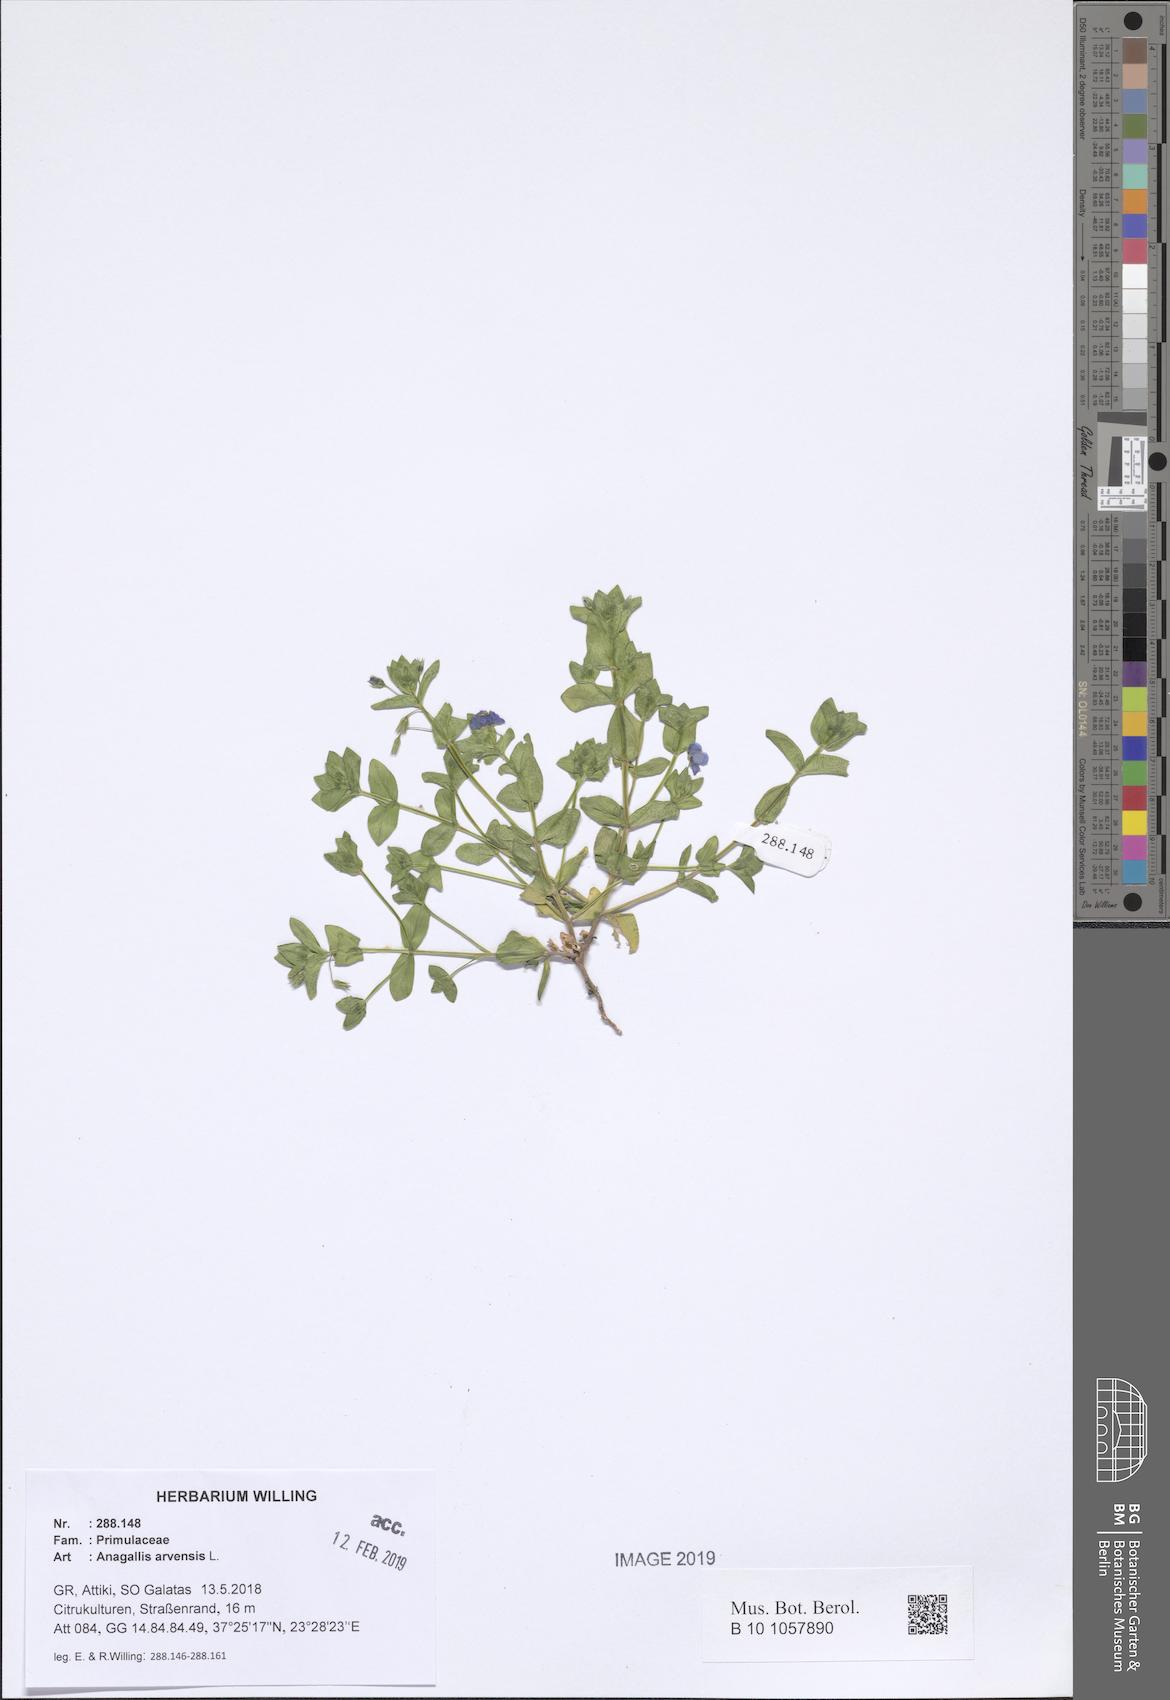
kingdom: Plantae
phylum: Tracheophyta
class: Magnoliopsida
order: Ericales
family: Primulaceae
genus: Lysimachia
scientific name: Lysimachia arvensis
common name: Scarlet pimpernel
